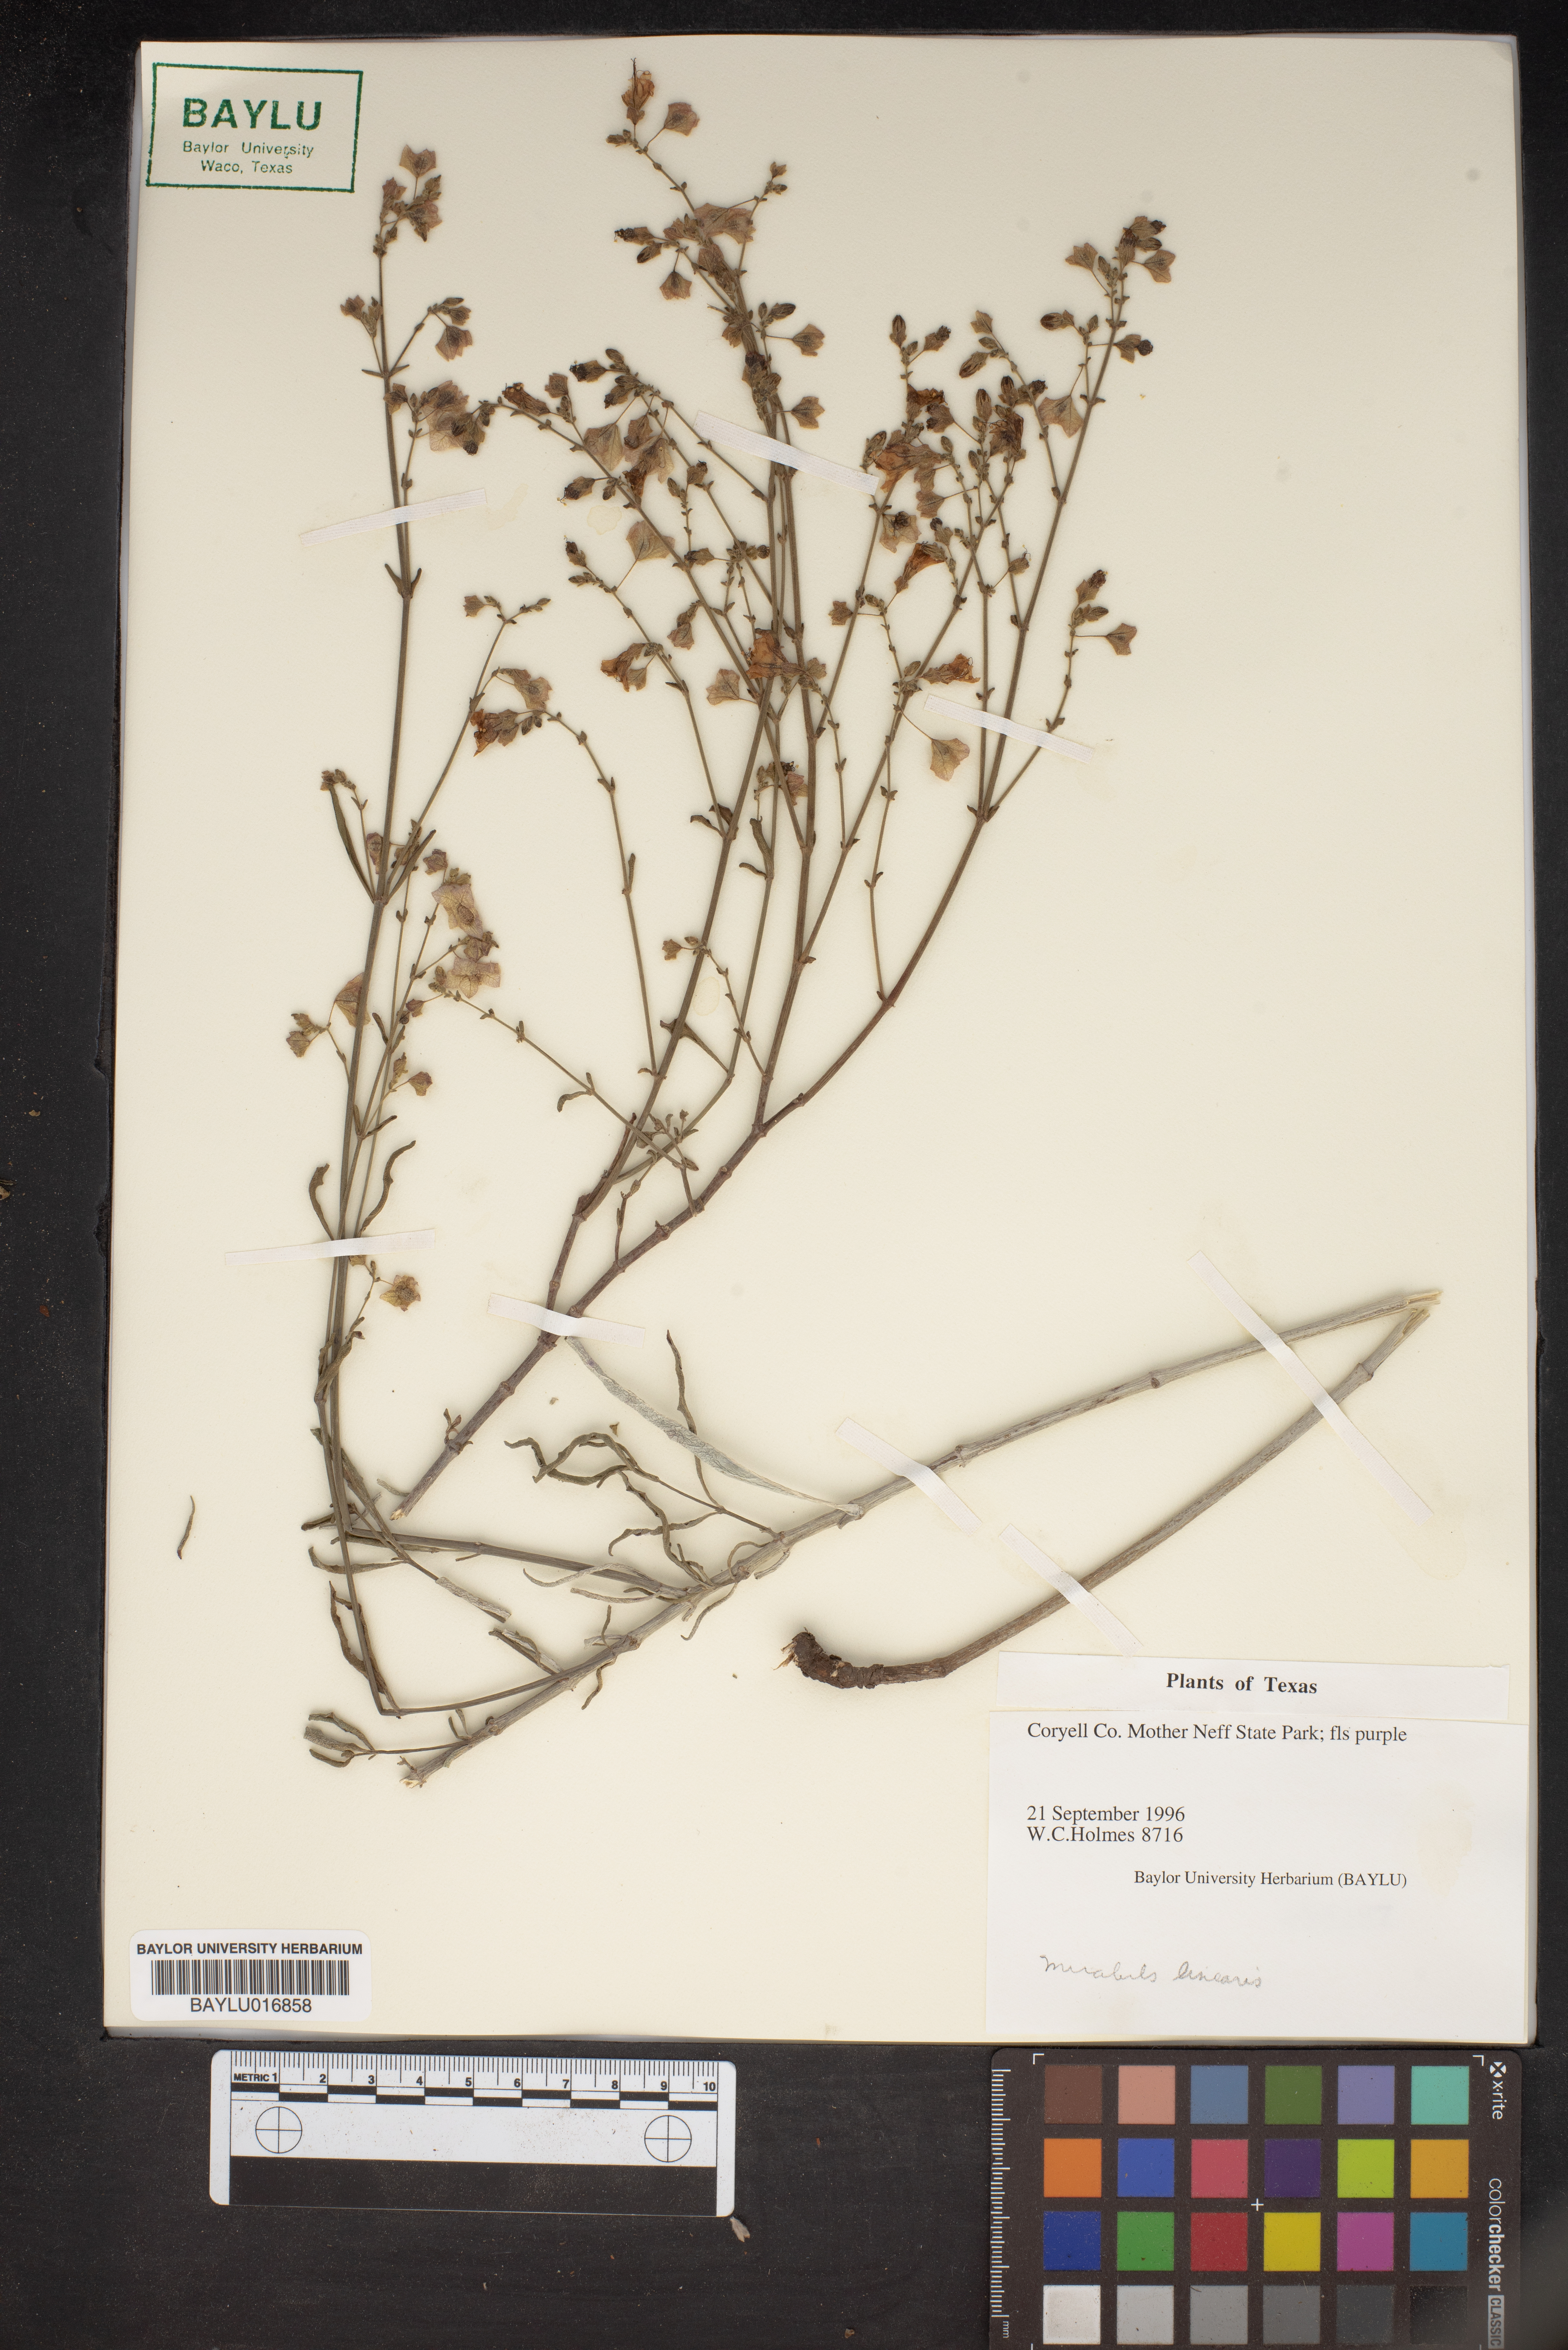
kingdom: Plantae
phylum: Tracheophyta
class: Magnoliopsida
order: Caryophyllales
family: Nyctaginaceae
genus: Mirabilis
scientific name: Mirabilis linearis
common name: Linear-leaved four-o'clock
